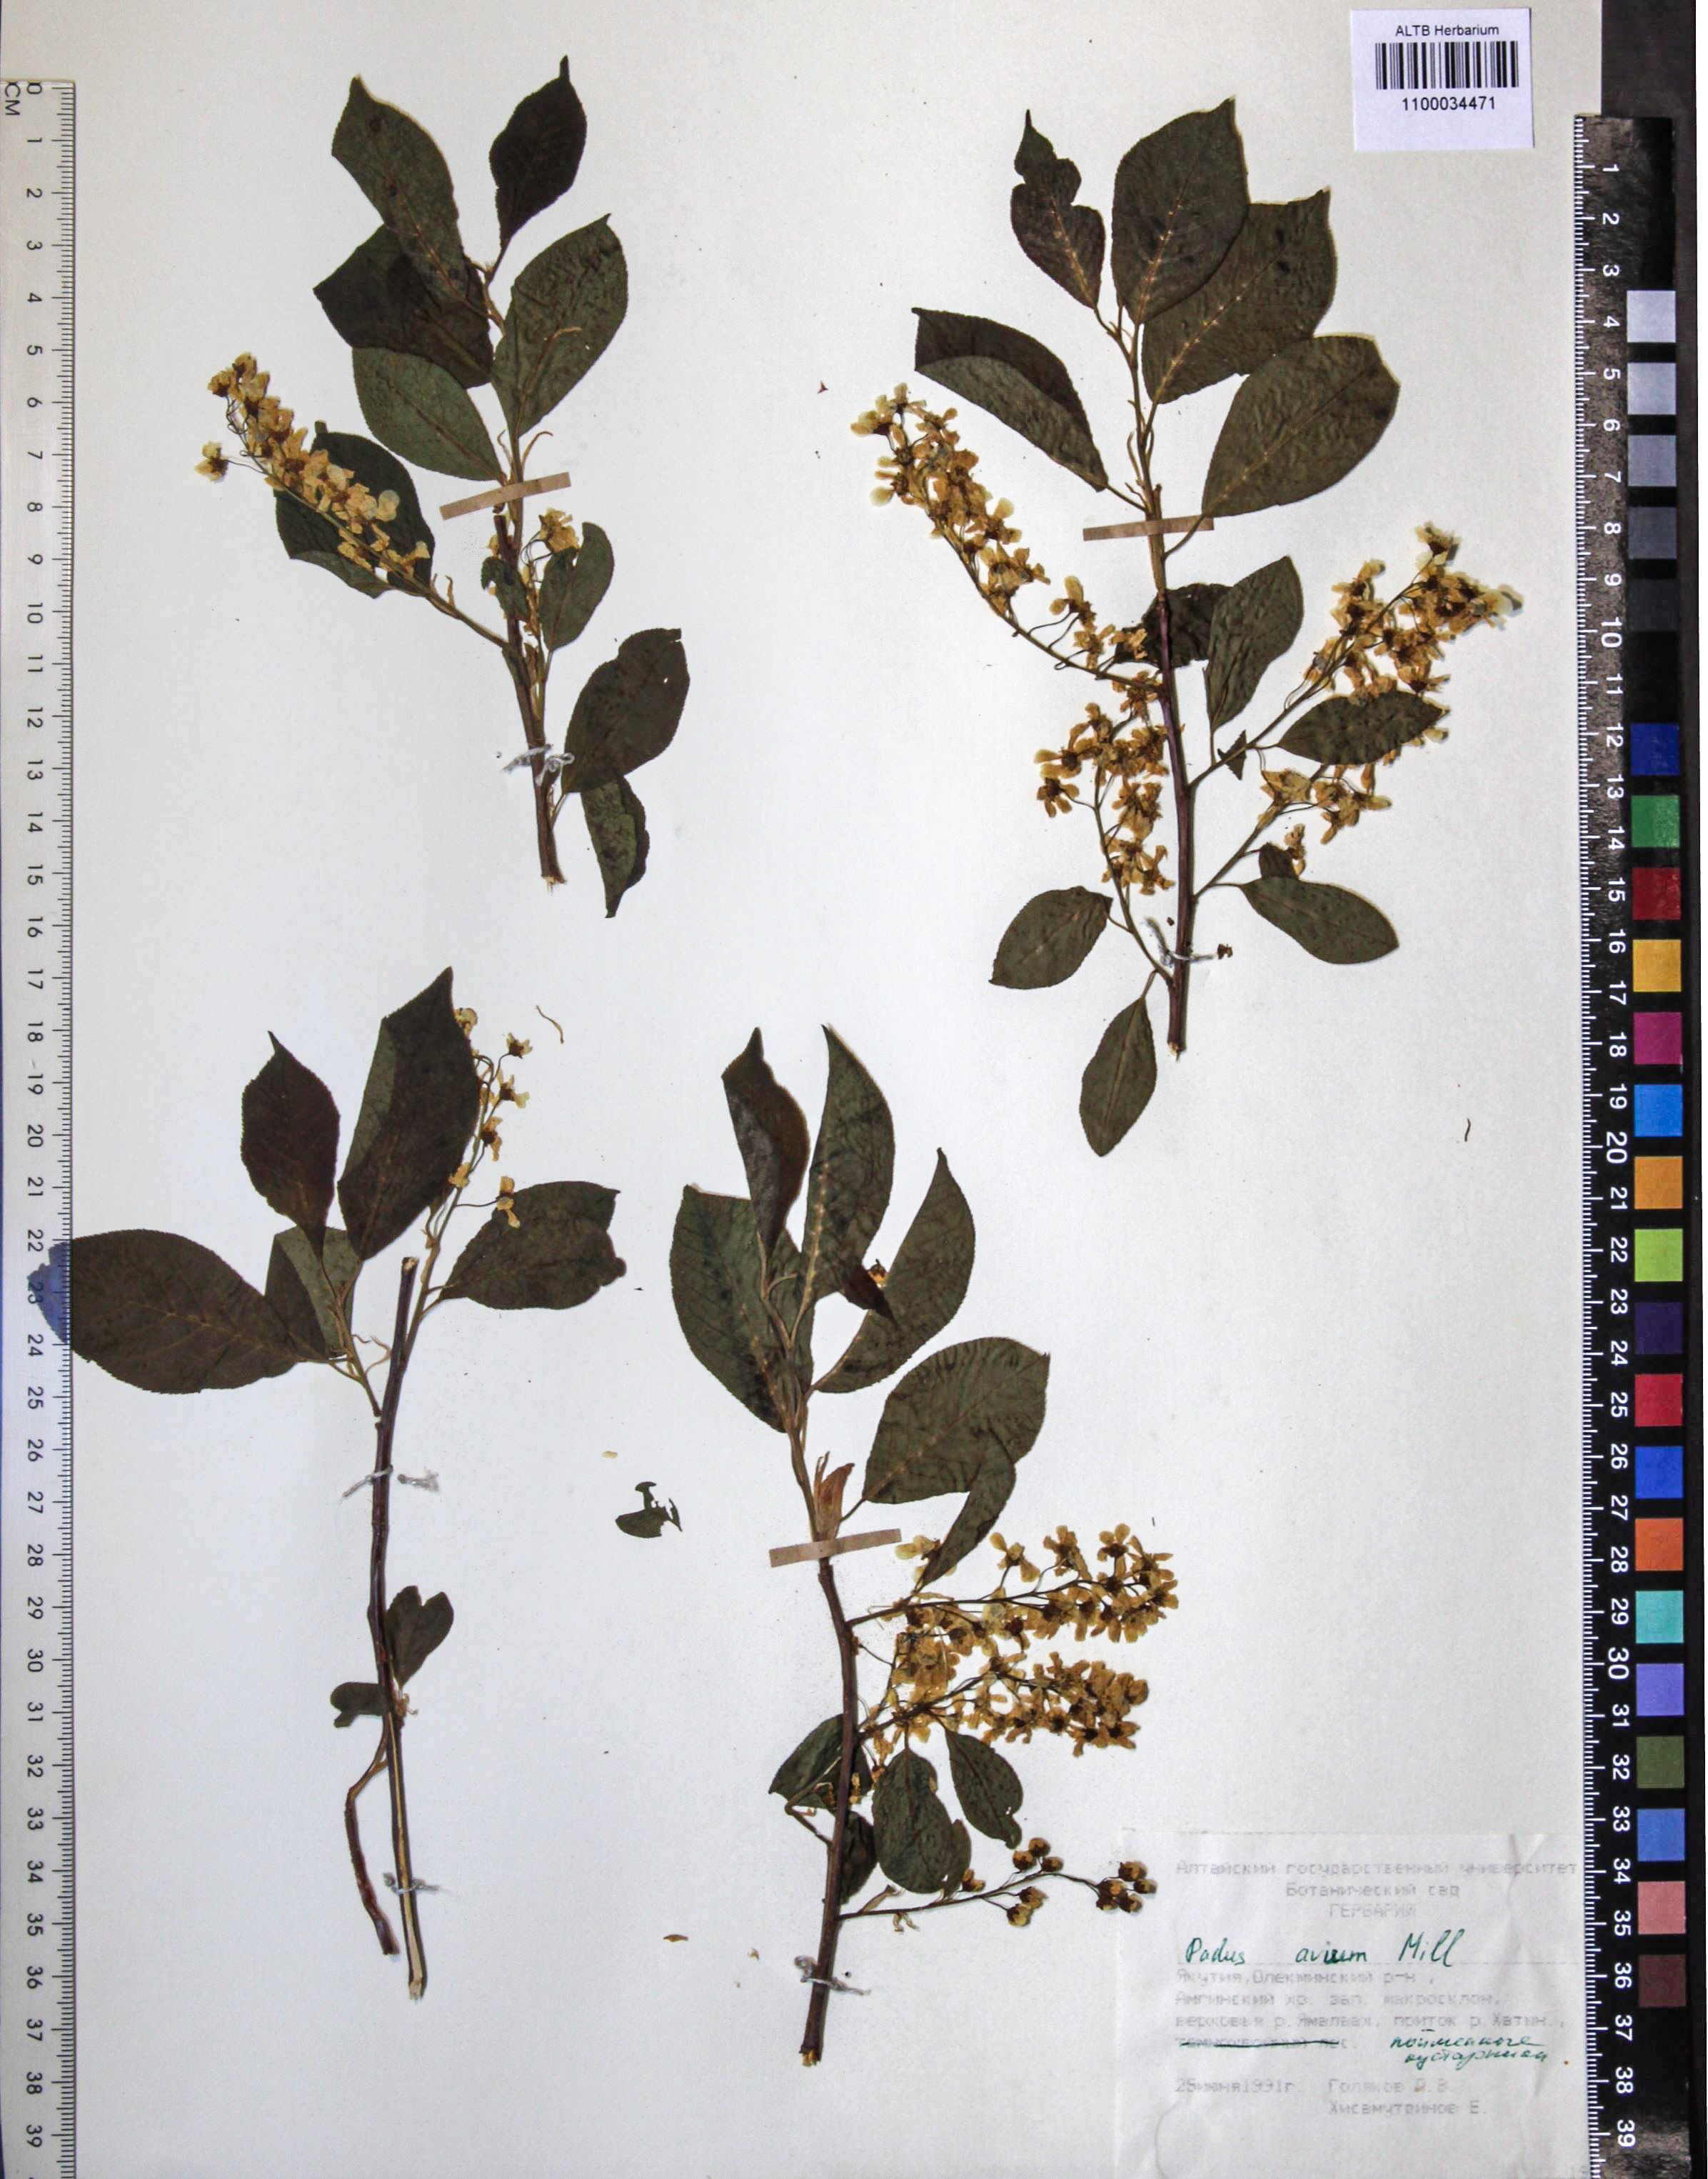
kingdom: Plantae
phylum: Tracheophyta
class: Magnoliopsida
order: Rosales
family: Rosaceae
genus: Prunus
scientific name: Prunus padus
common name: Bird cherry
